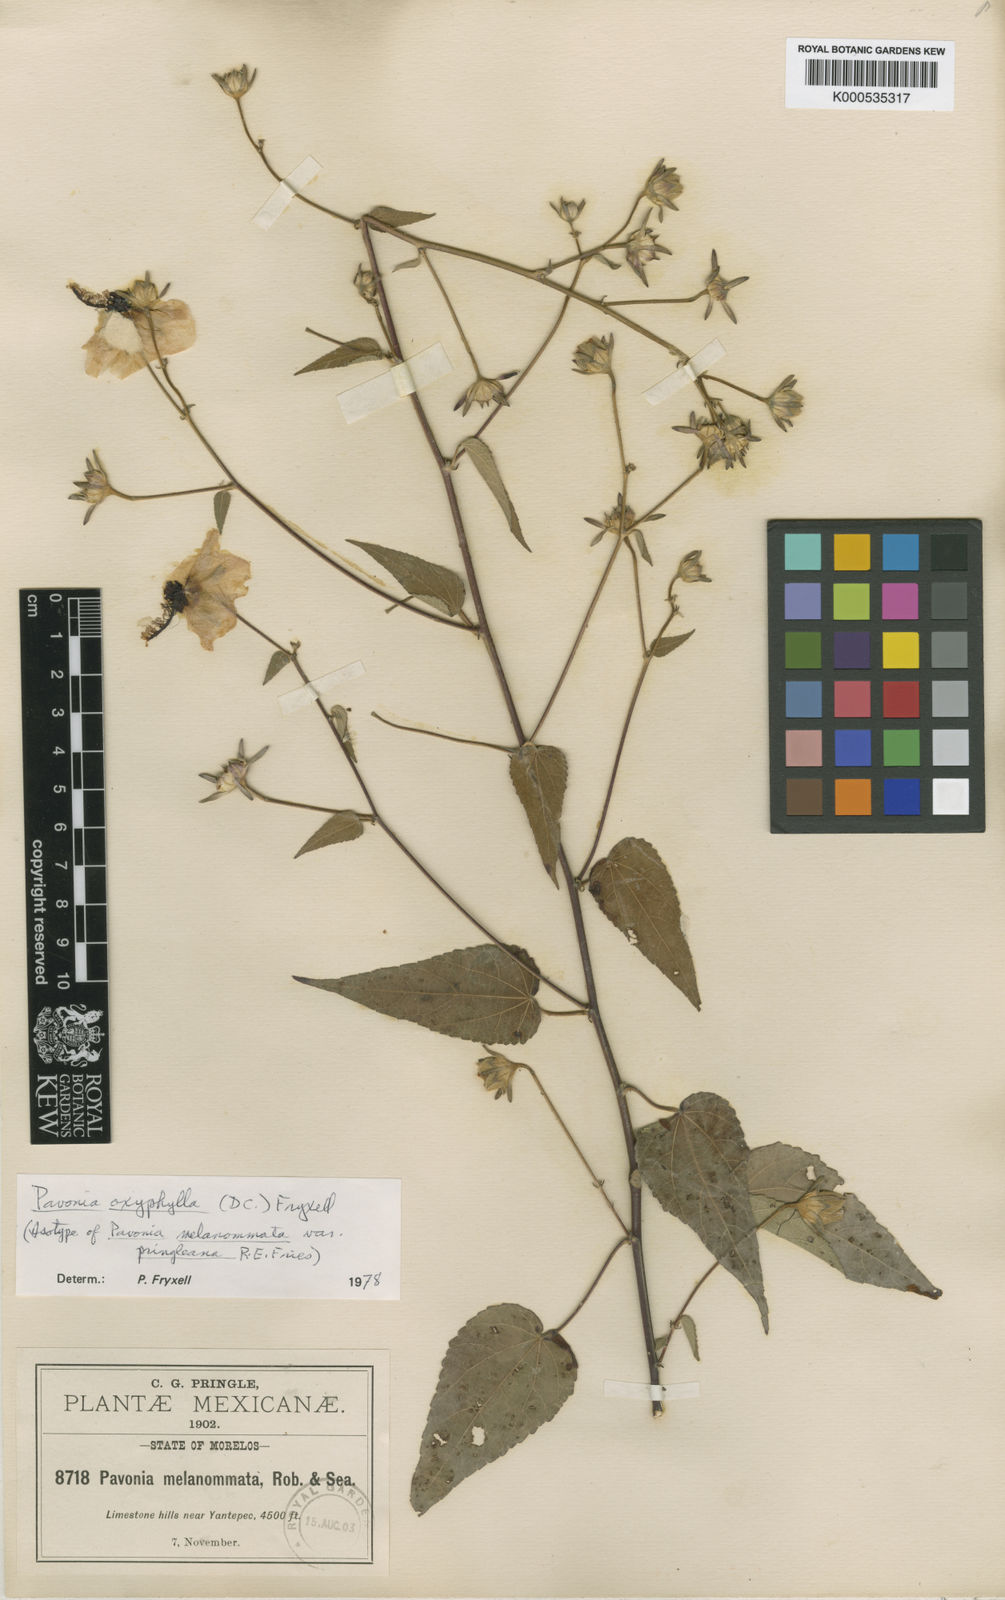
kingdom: Plantae
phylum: Tracheophyta
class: Magnoliopsida
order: Malvales
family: Malvaceae
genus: Pavonia
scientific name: Pavonia oxyphylla
